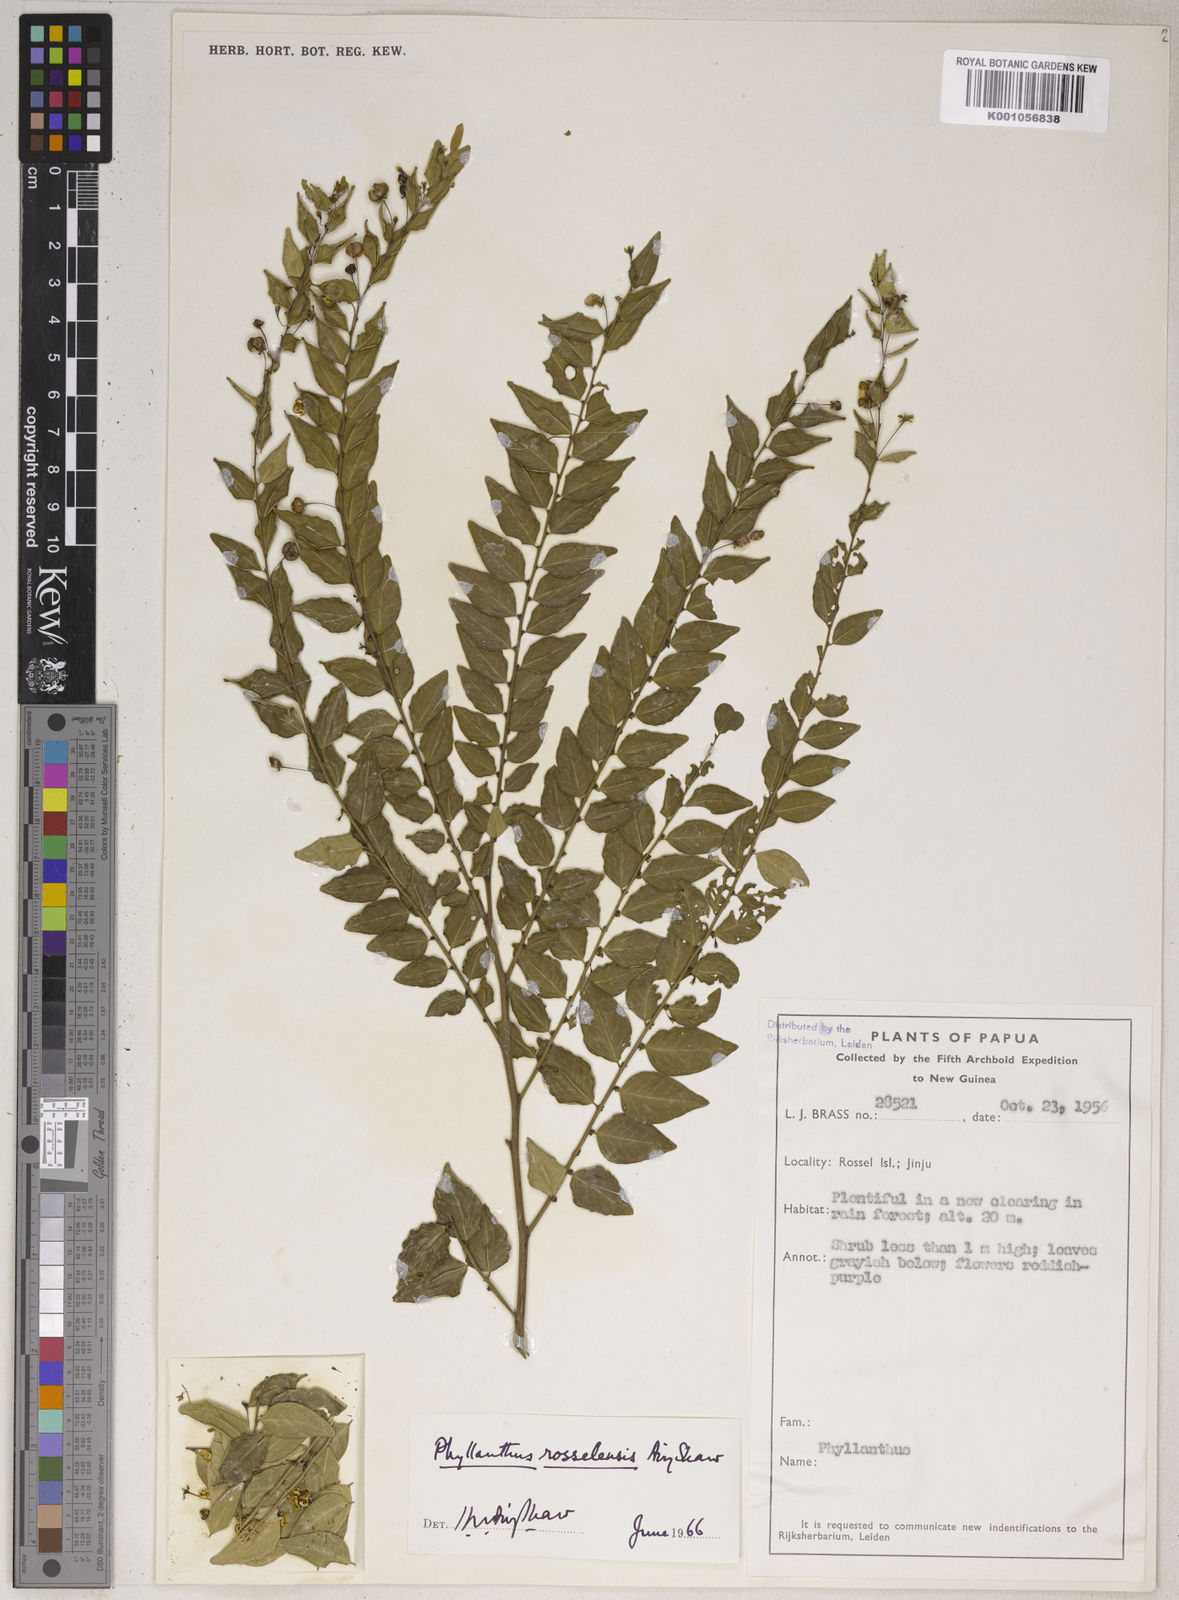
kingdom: Plantae
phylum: Tracheophyta
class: Magnoliopsida
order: Malpighiales
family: Phyllanthaceae
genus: Phyllanthus
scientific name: Phyllanthus rosselensis
